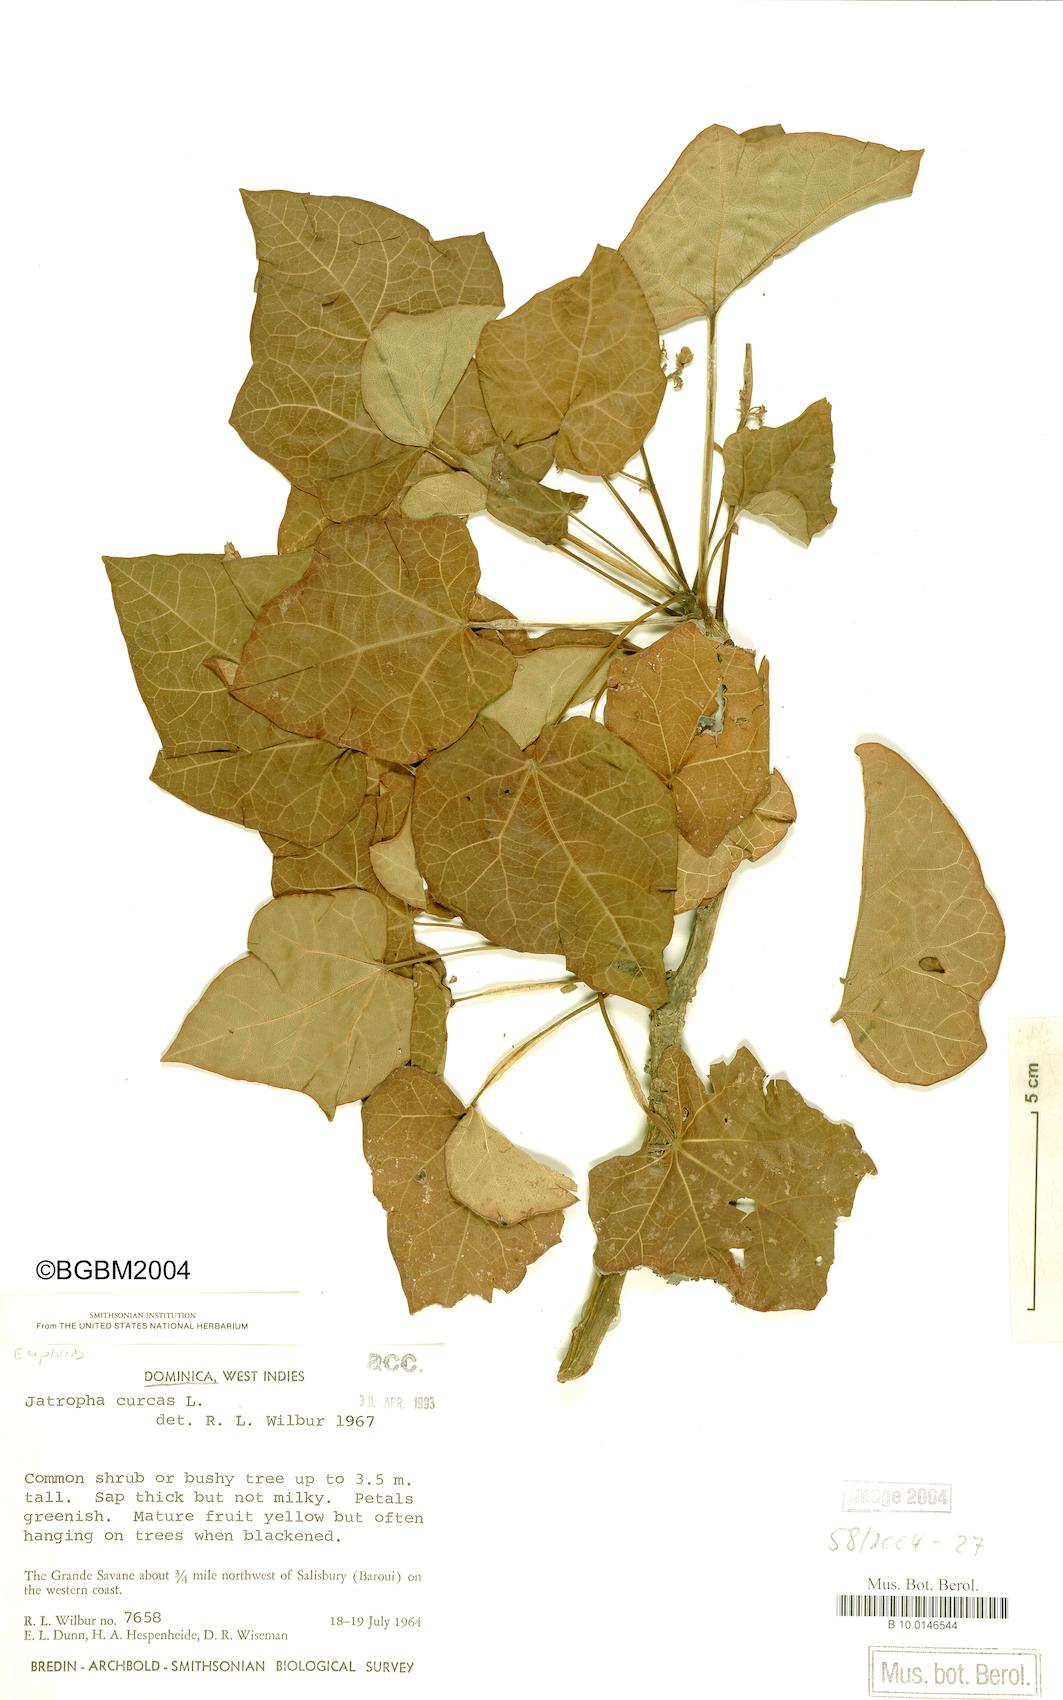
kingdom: Plantae
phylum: Tracheophyta
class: Magnoliopsida
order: Malpighiales
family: Euphorbiaceae
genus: Jatropha
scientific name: Jatropha curcas
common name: Barbados nut
